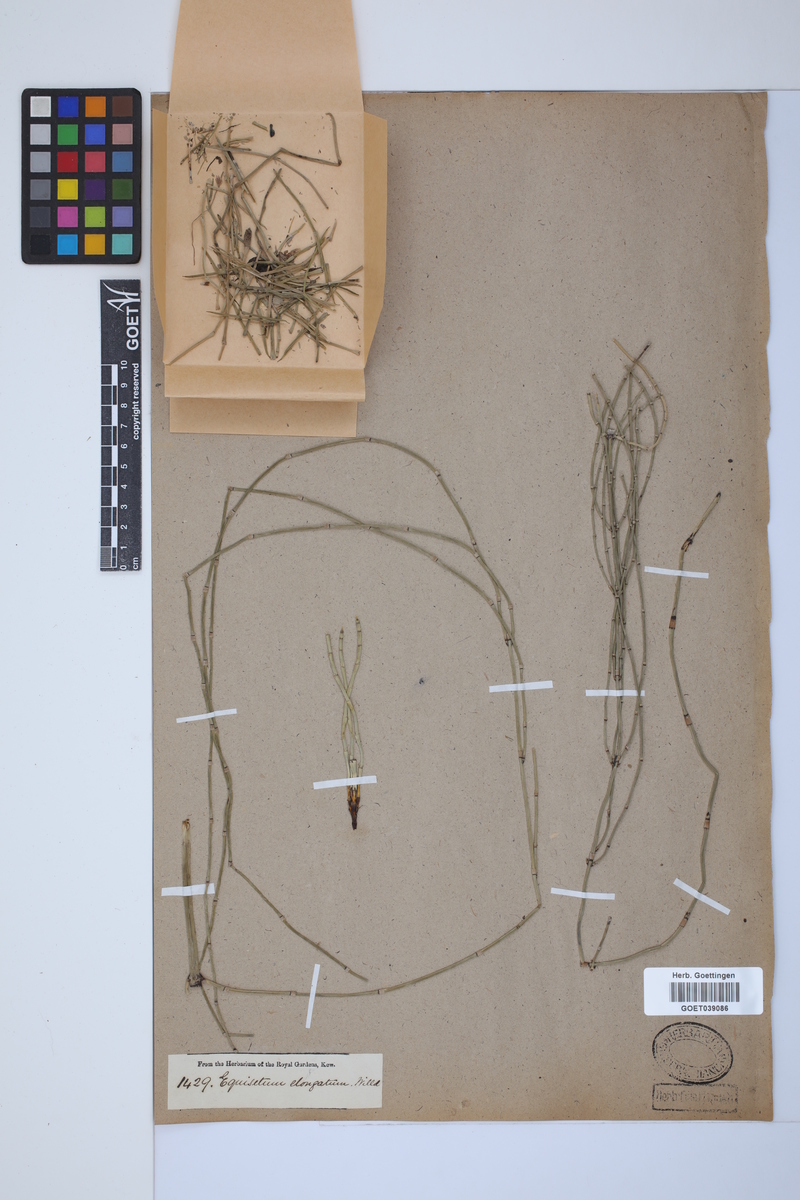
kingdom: Plantae
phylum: Tracheophyta
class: Polypodiopsida
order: Equisetales
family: Equisetaceae
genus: Equisetum
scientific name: Equisetum giganteum
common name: Giant horsetail
